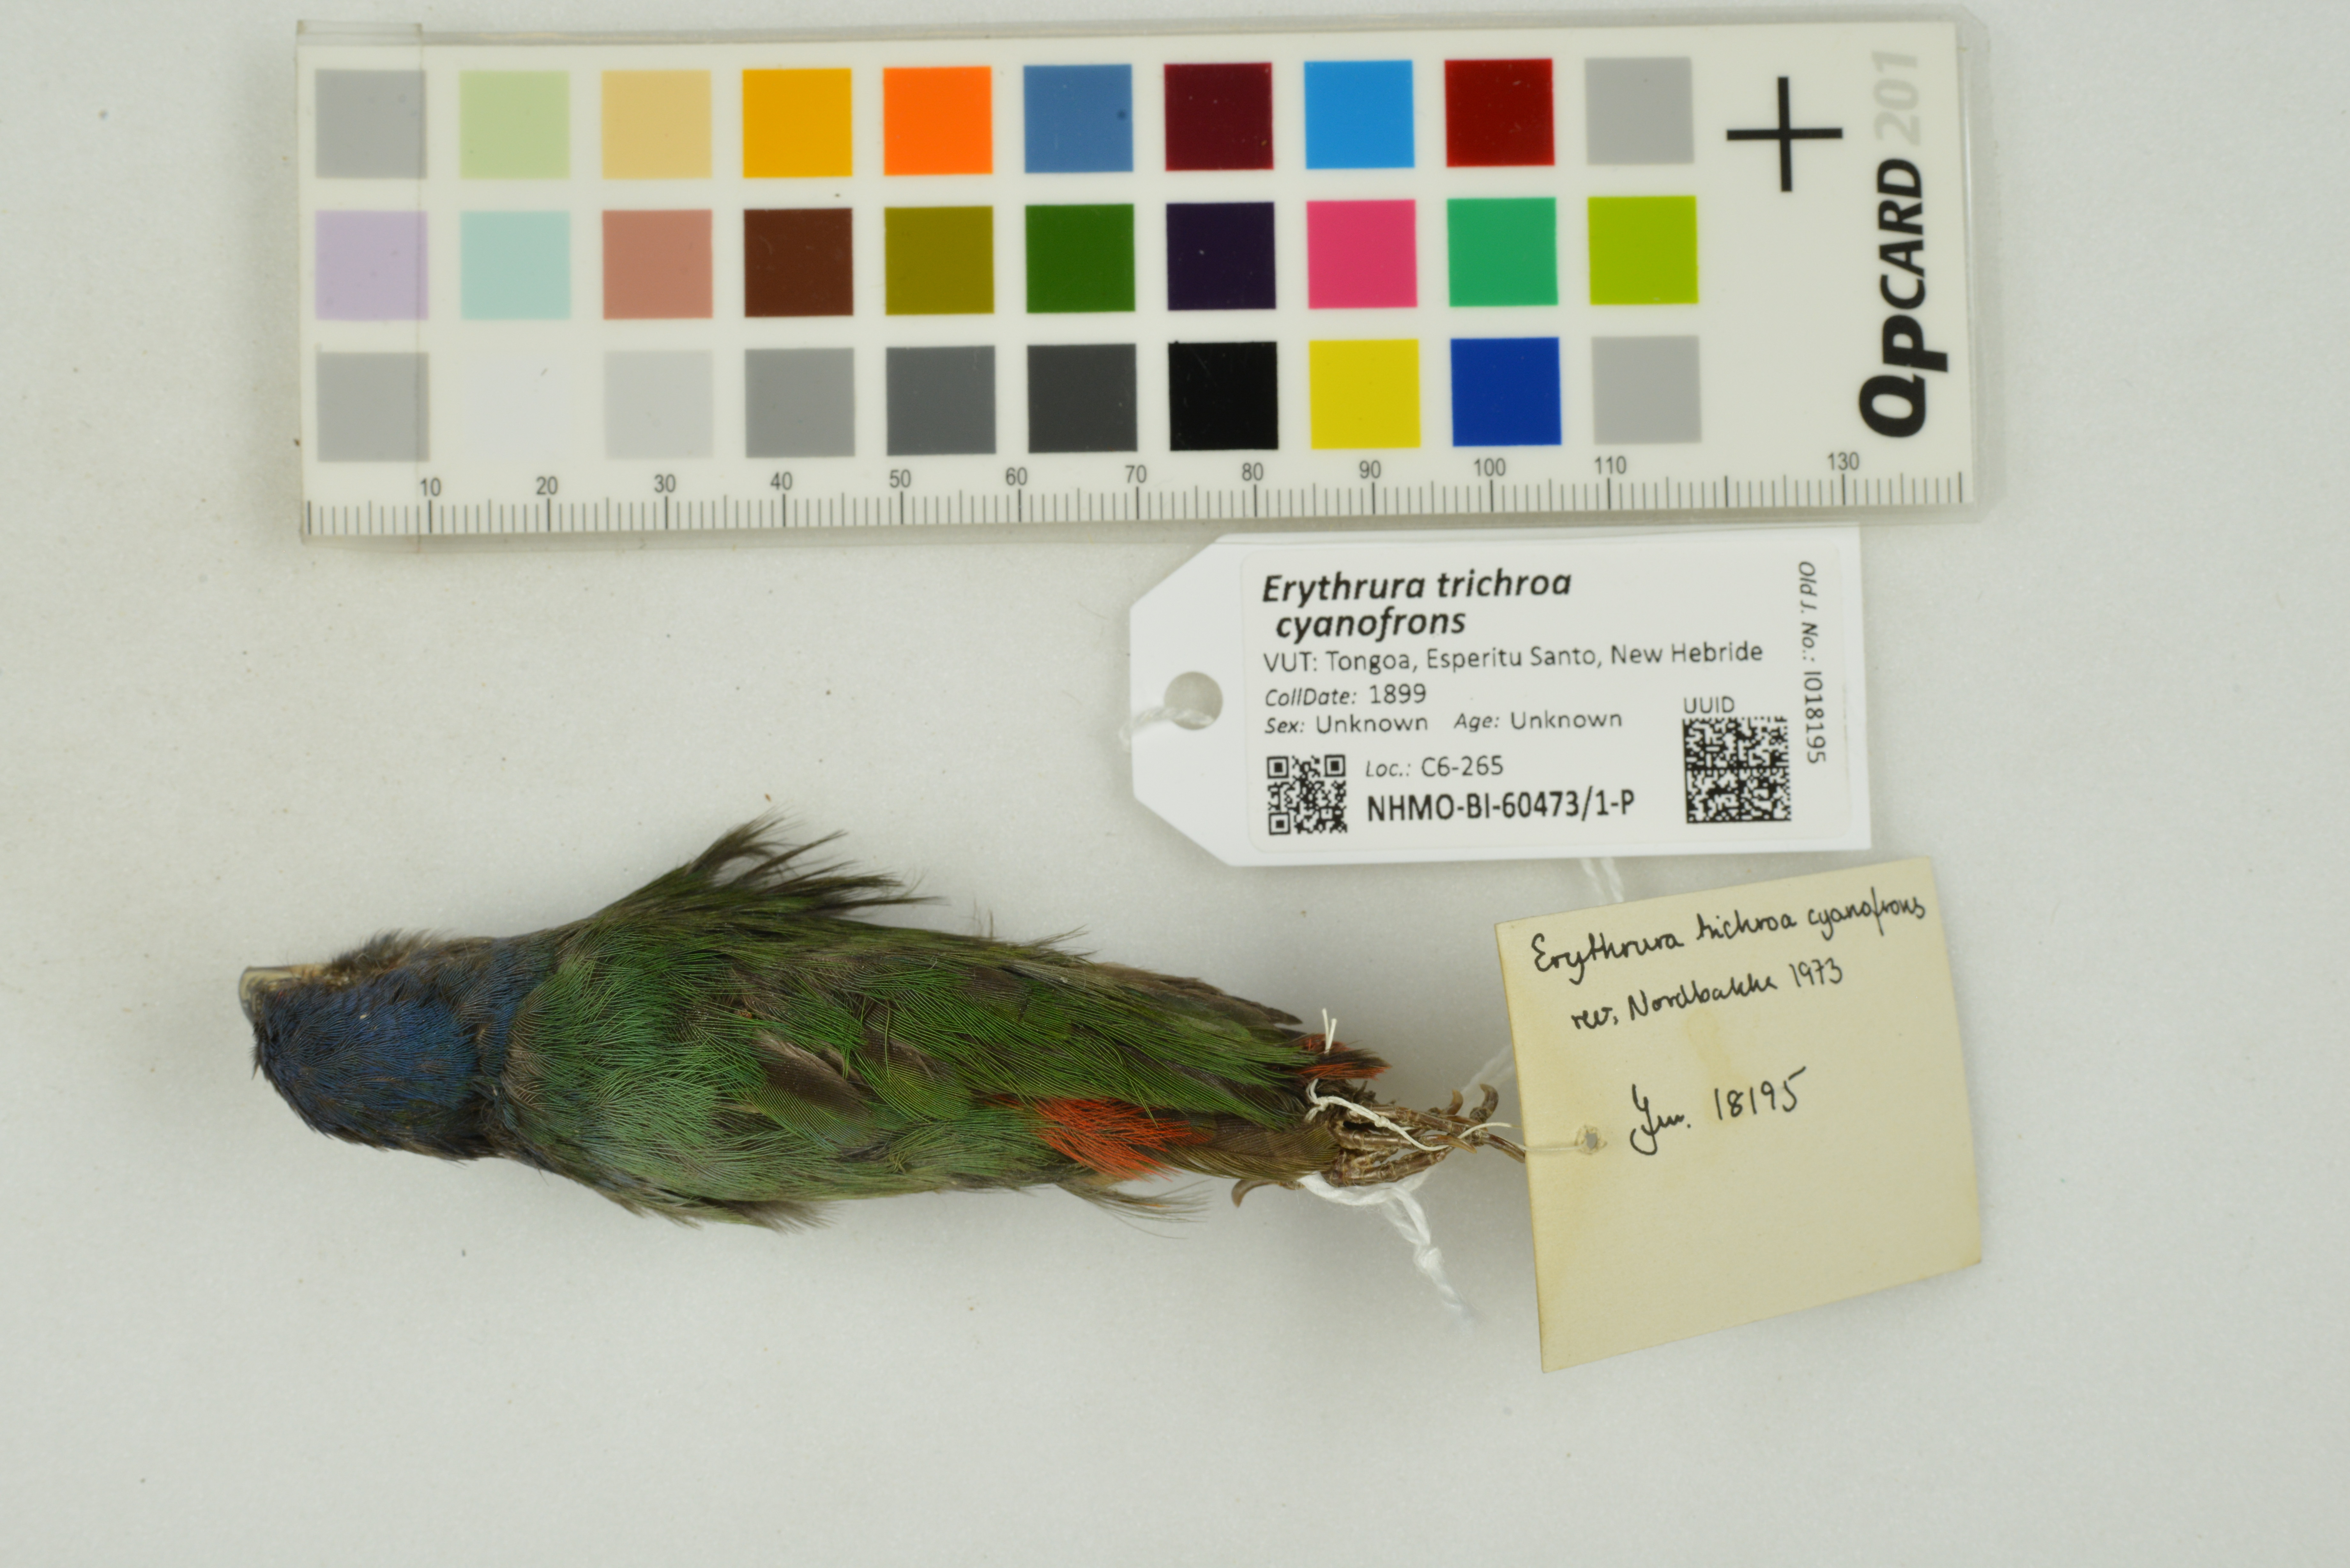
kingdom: Animalia
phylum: Chordata
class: Aves
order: Passeriformes
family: Estrildidae
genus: Erythrura
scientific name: Erythrura trichroa
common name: Blue-faced parrotfinch
